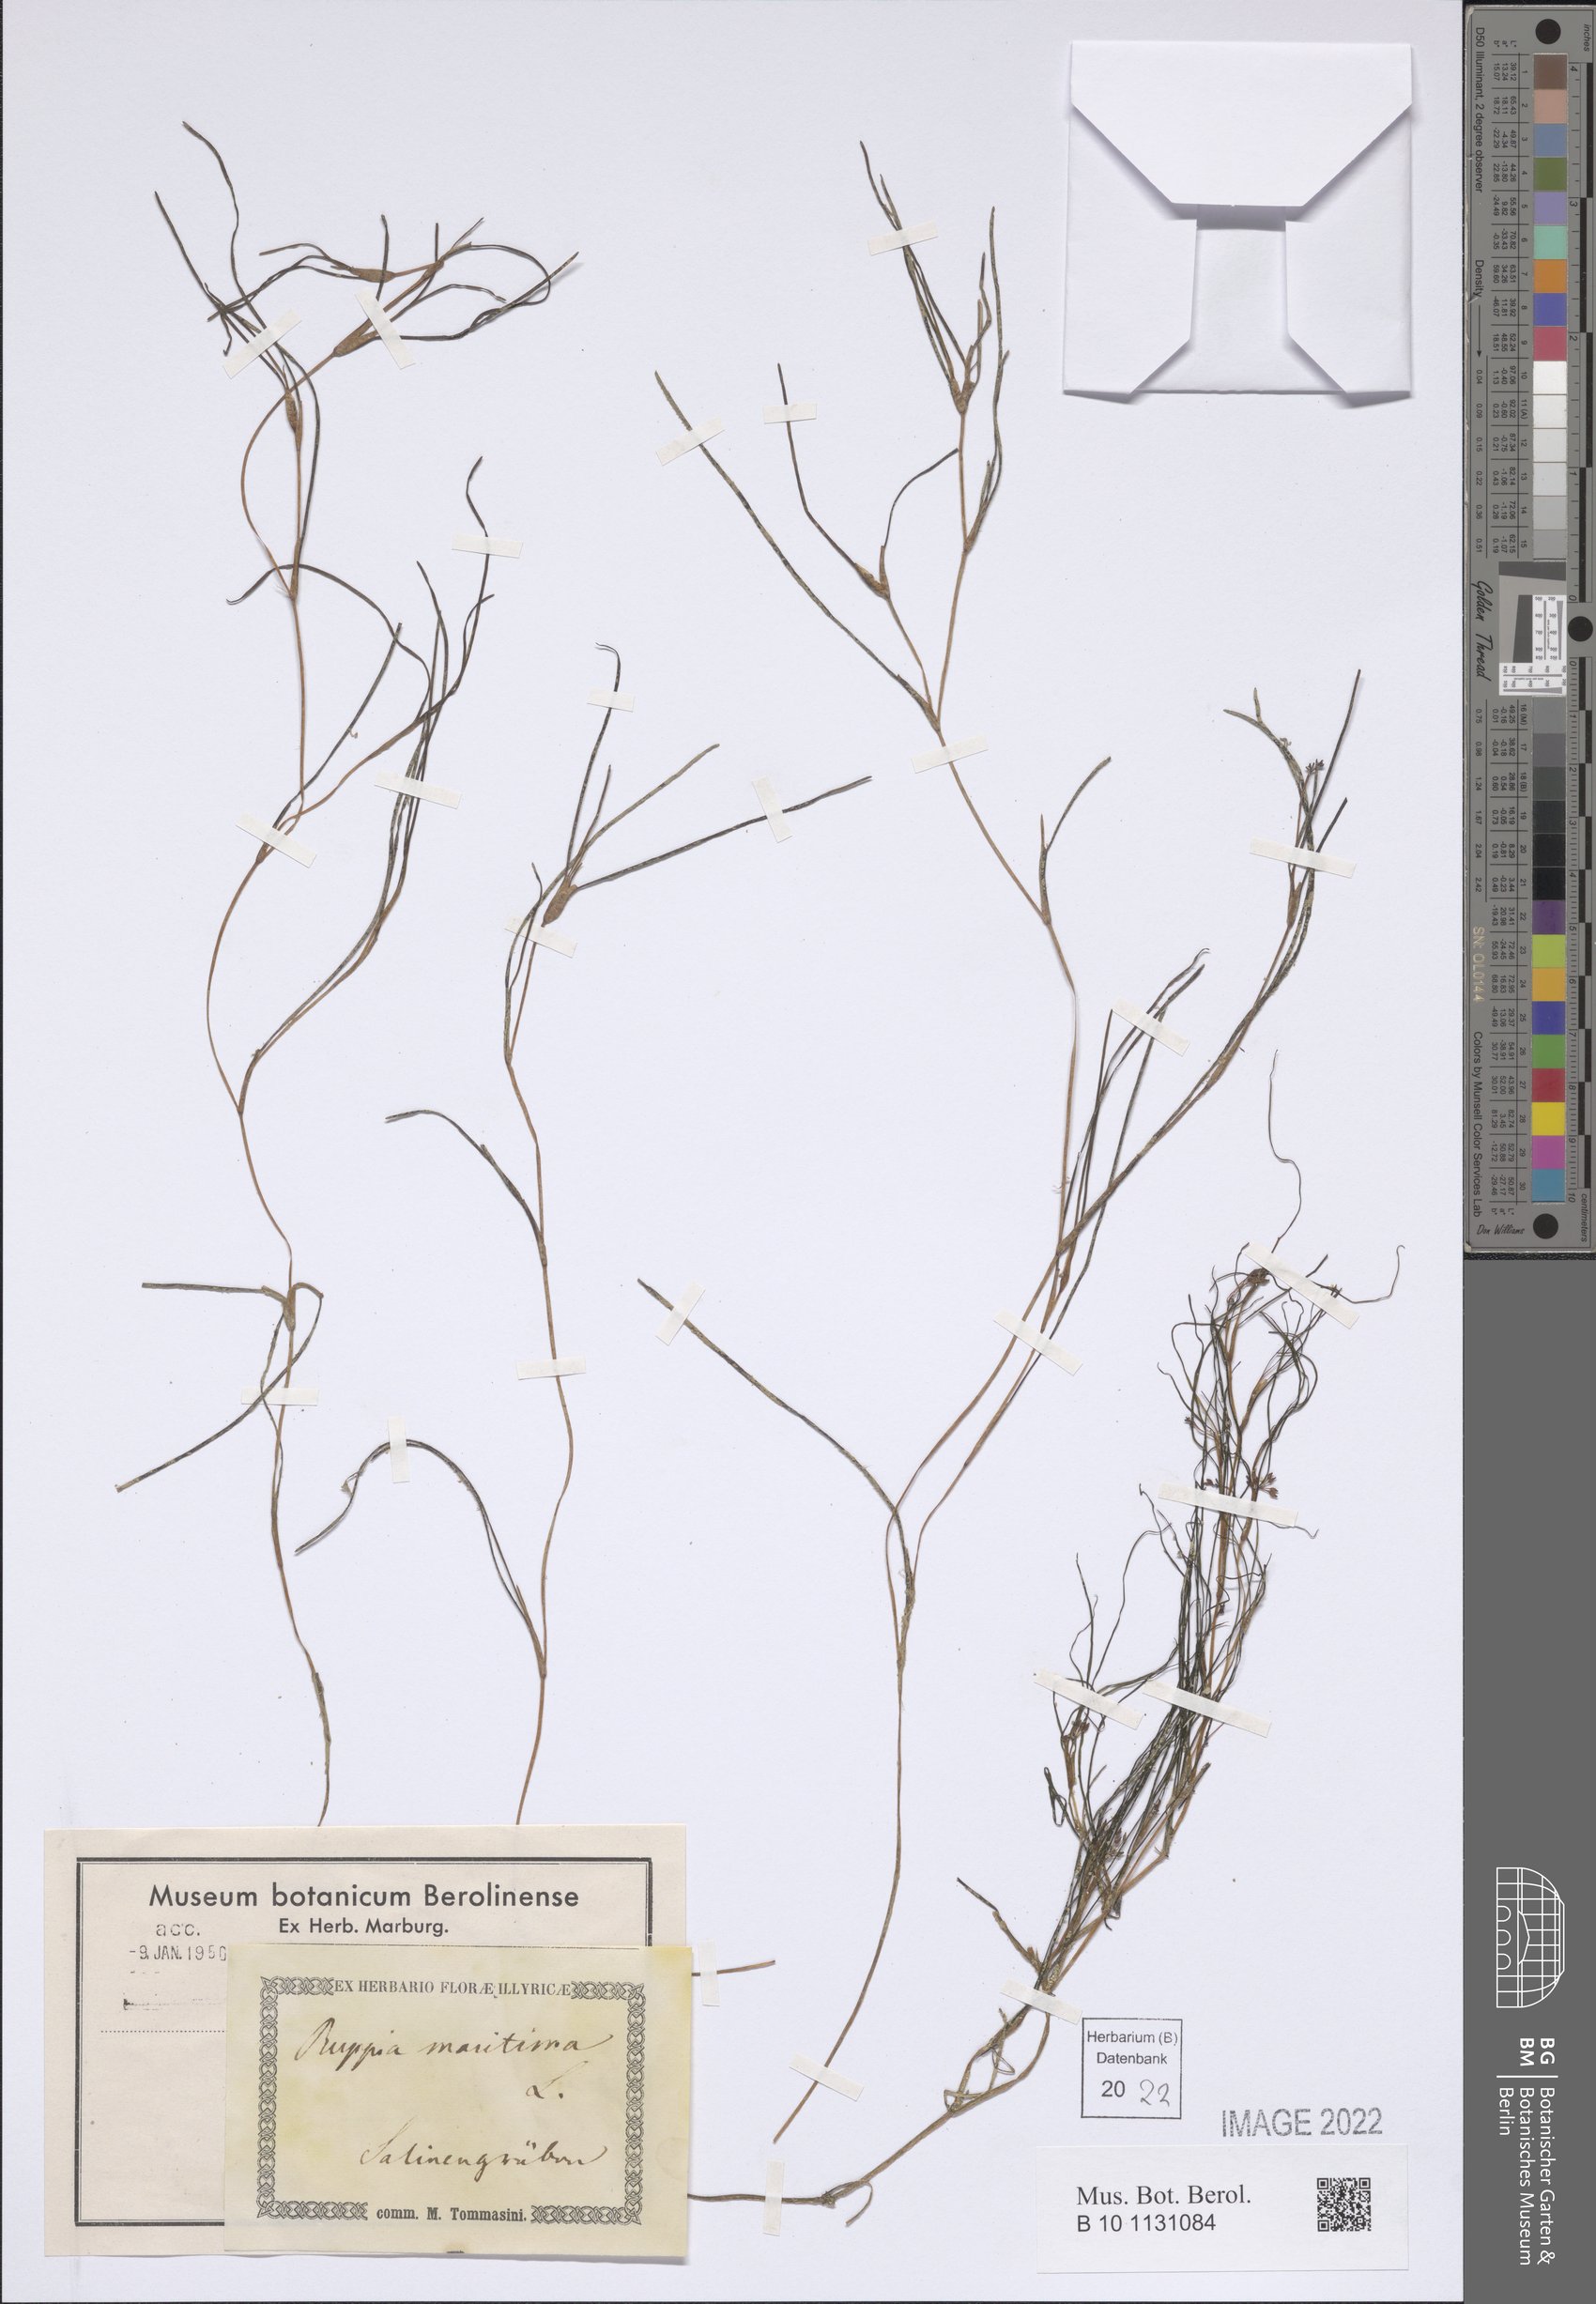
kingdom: Plantae
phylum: Tracheophyta
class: Liliopsida
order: Alismatales
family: Ruppiaceae
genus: Ruppia
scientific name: Ruppia maritima
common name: Beaked tasselweed
